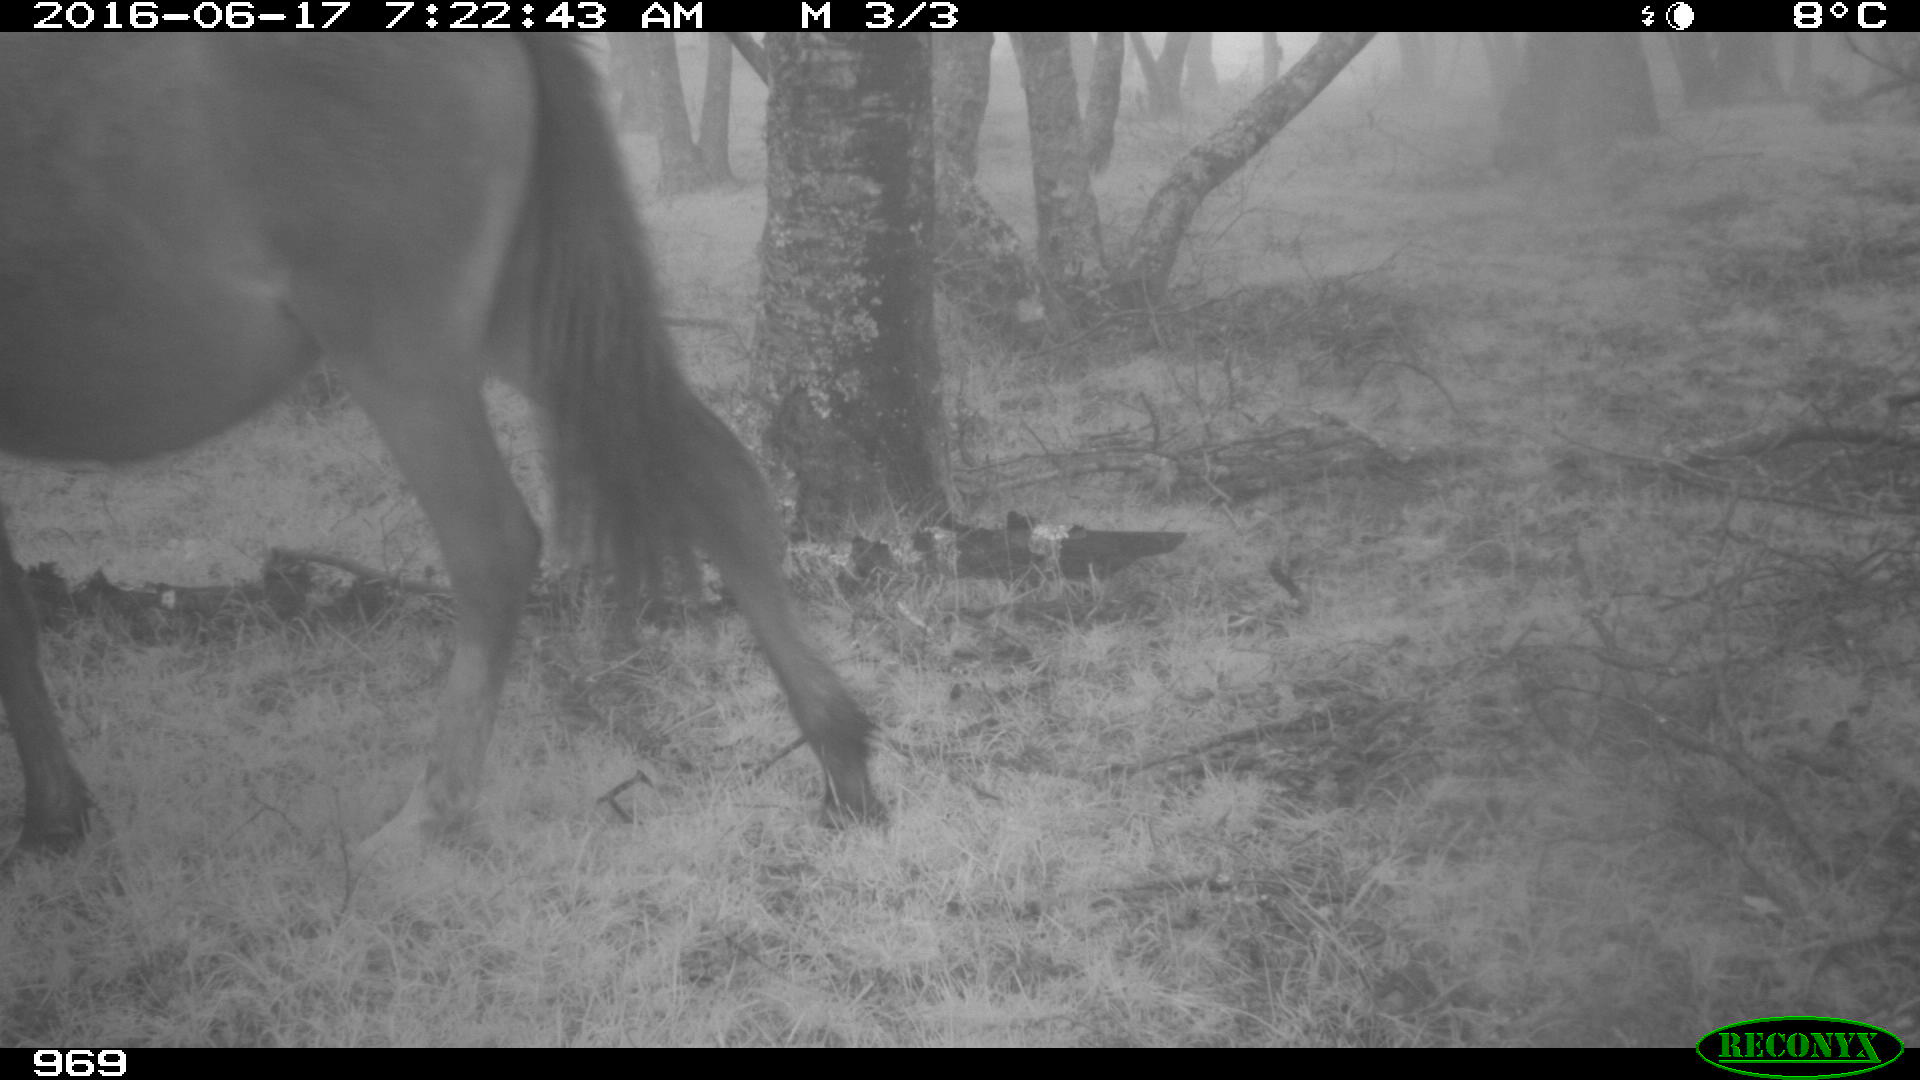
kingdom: Animalia
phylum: Chordata
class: Mammalia
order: Perissodactyla
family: Equidae
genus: Equus
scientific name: Equus caballus
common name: Horse
